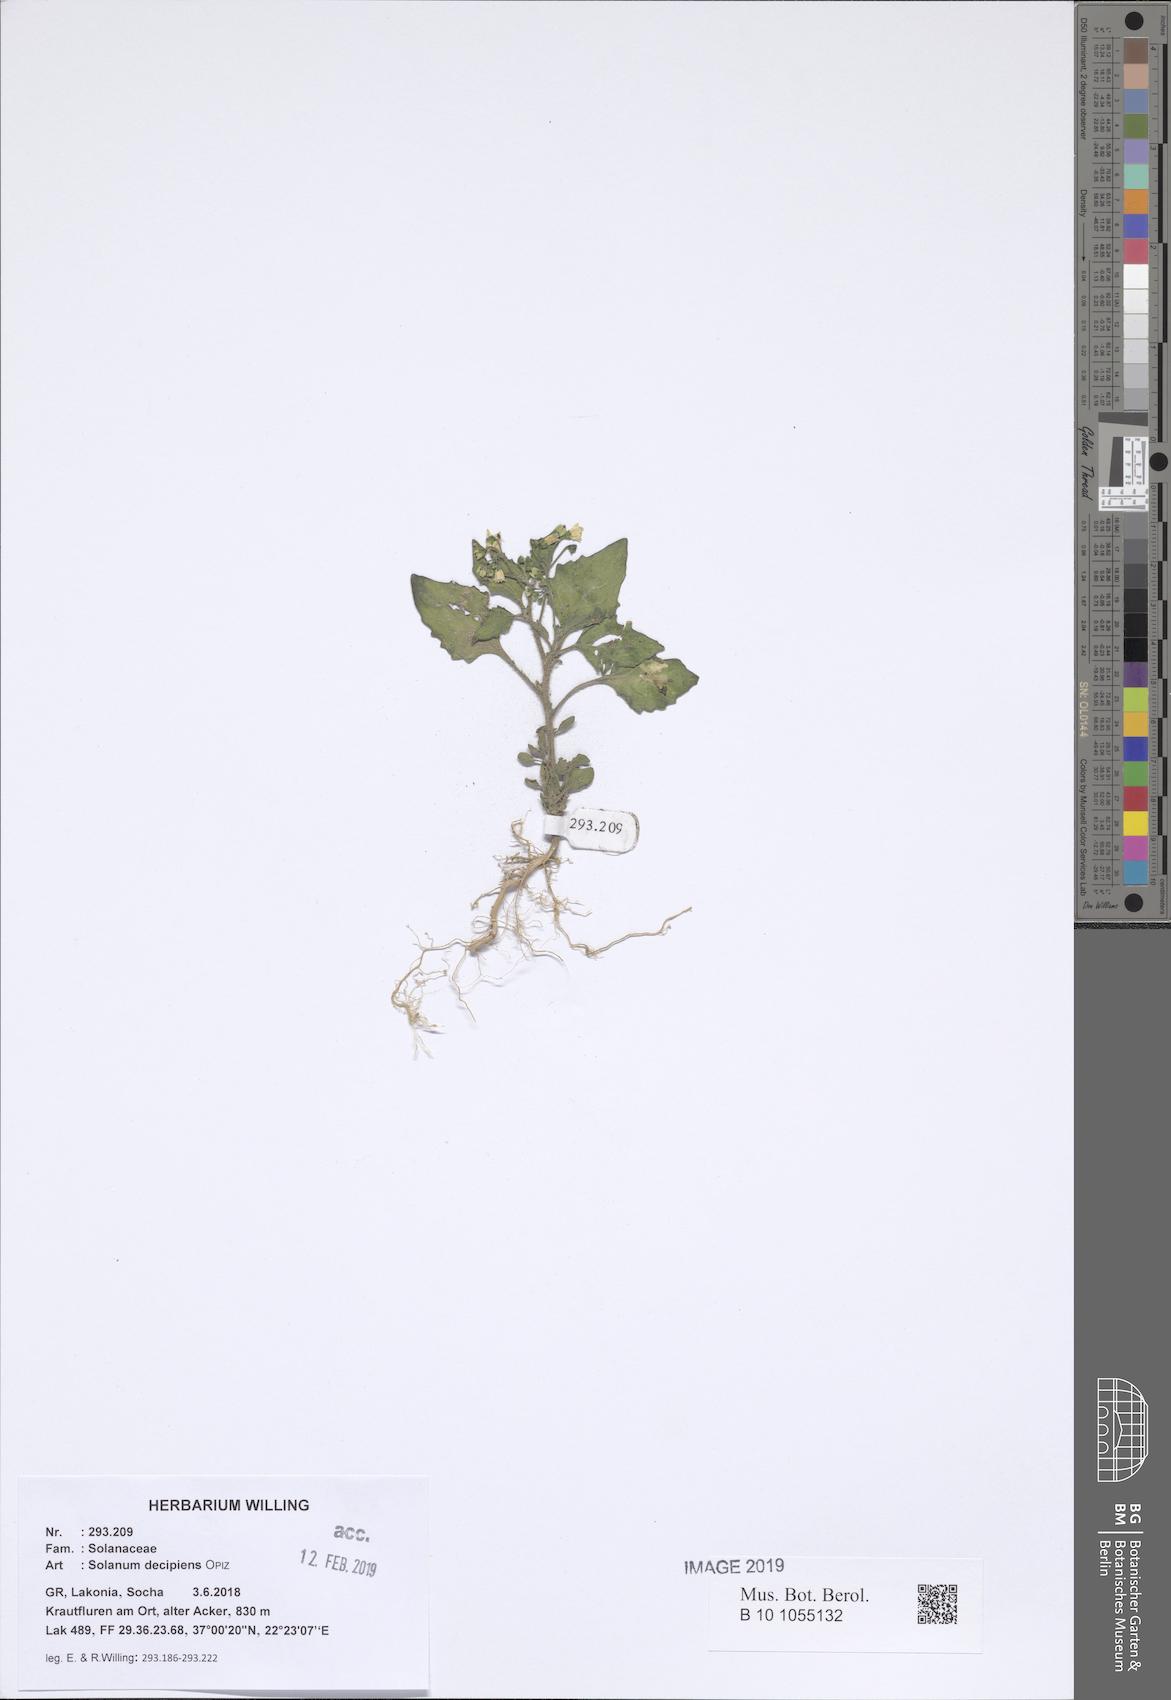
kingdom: Plantae
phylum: Tracheophyta
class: Magnoliopsida
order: Solanales
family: Solanaceae
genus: Solanum
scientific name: Solanum decipiens
